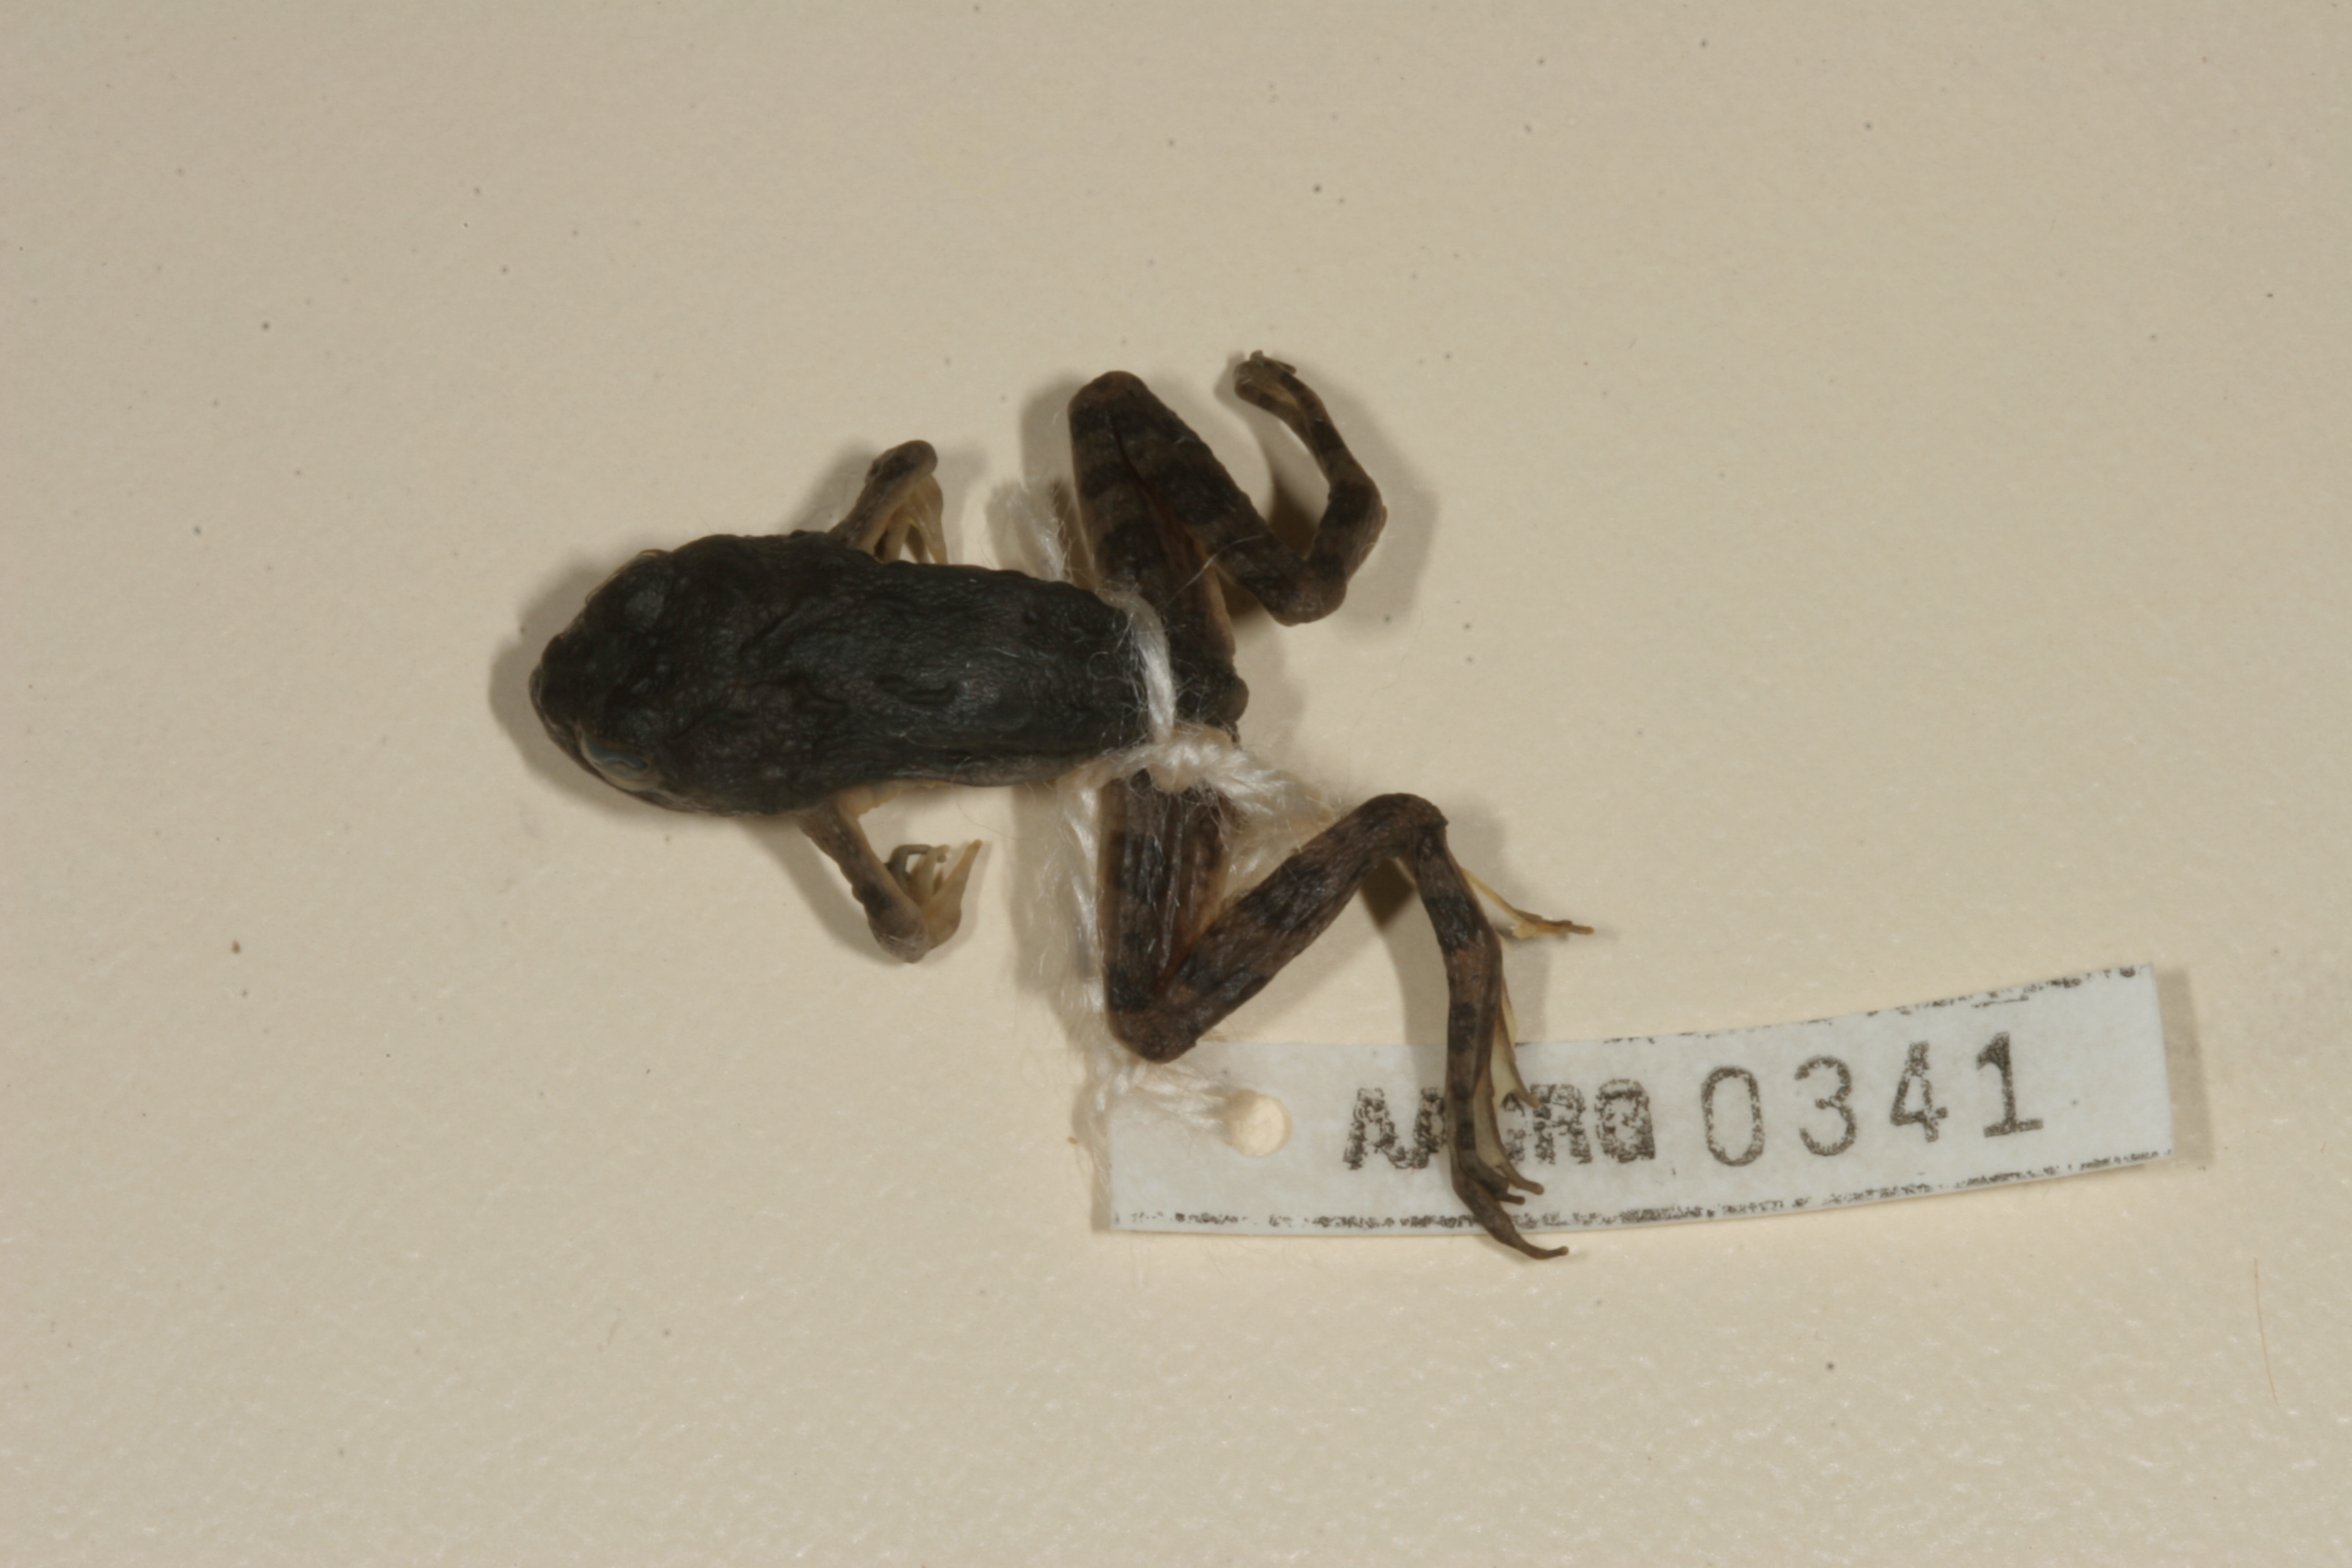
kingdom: Animalia
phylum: Chordata
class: Amphibia
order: Anura
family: Pyxicephalidae
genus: Amietia
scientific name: Amietia vertebralis
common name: Drakensberg stream frog
